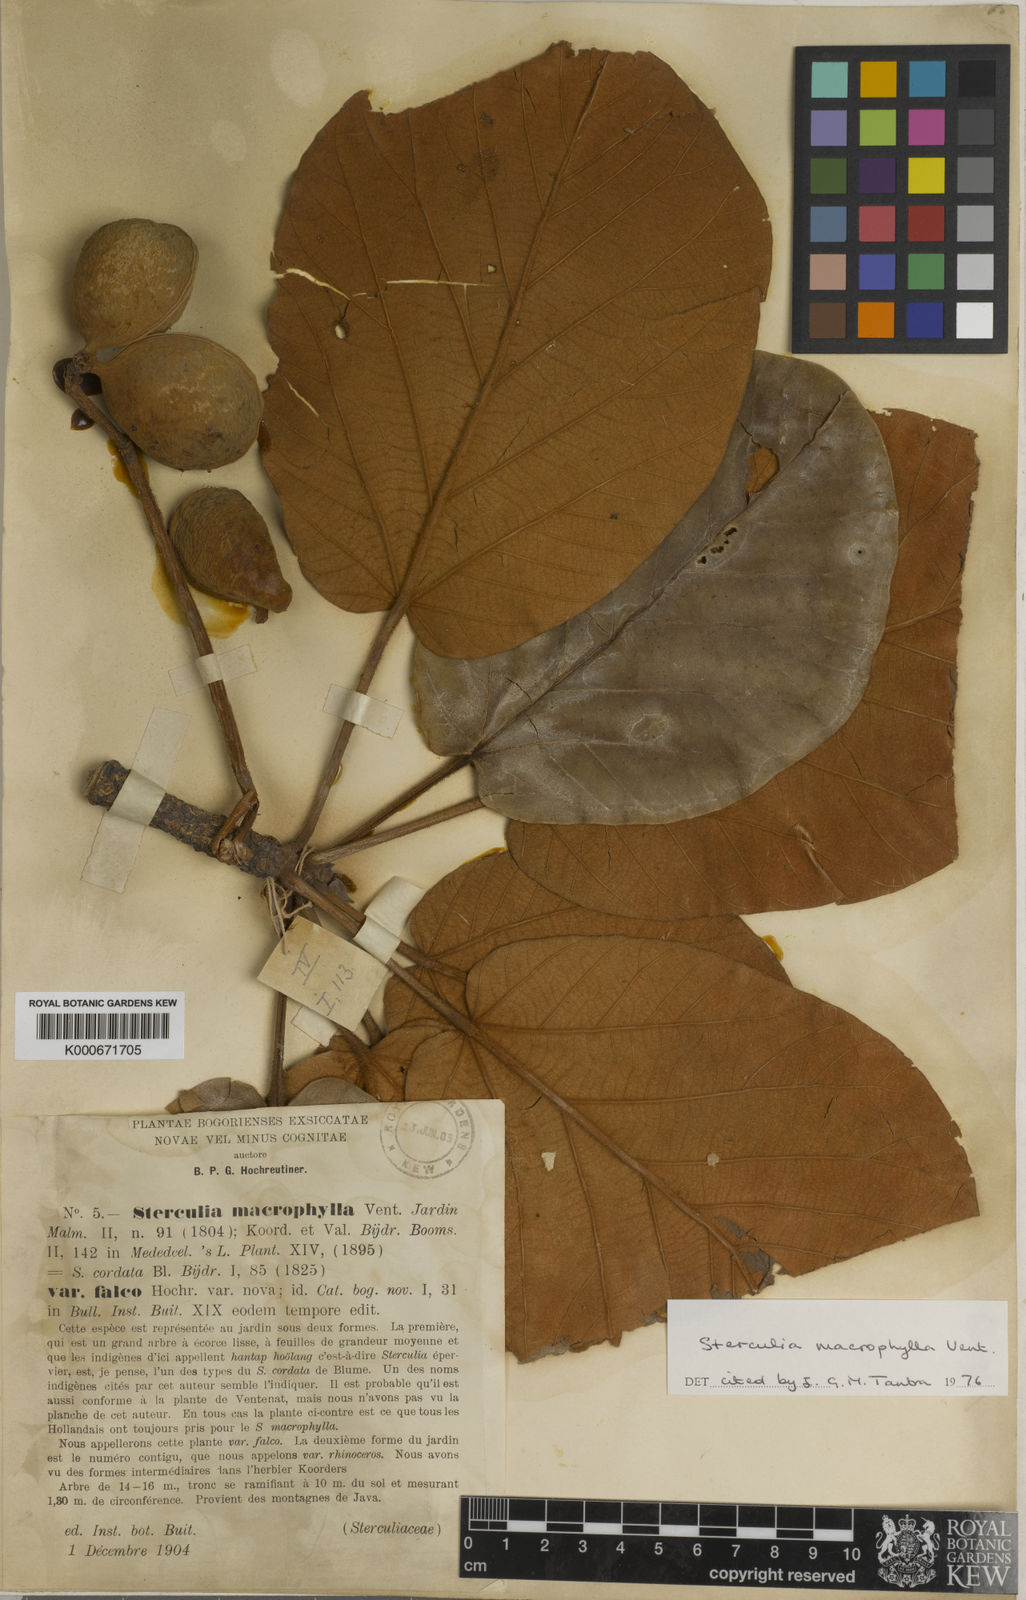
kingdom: Plantae
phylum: Tracheophyta
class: Magnoliopsida
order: Malvales
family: Malvaceae
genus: Sterculia
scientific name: Sterculia macrophylla
